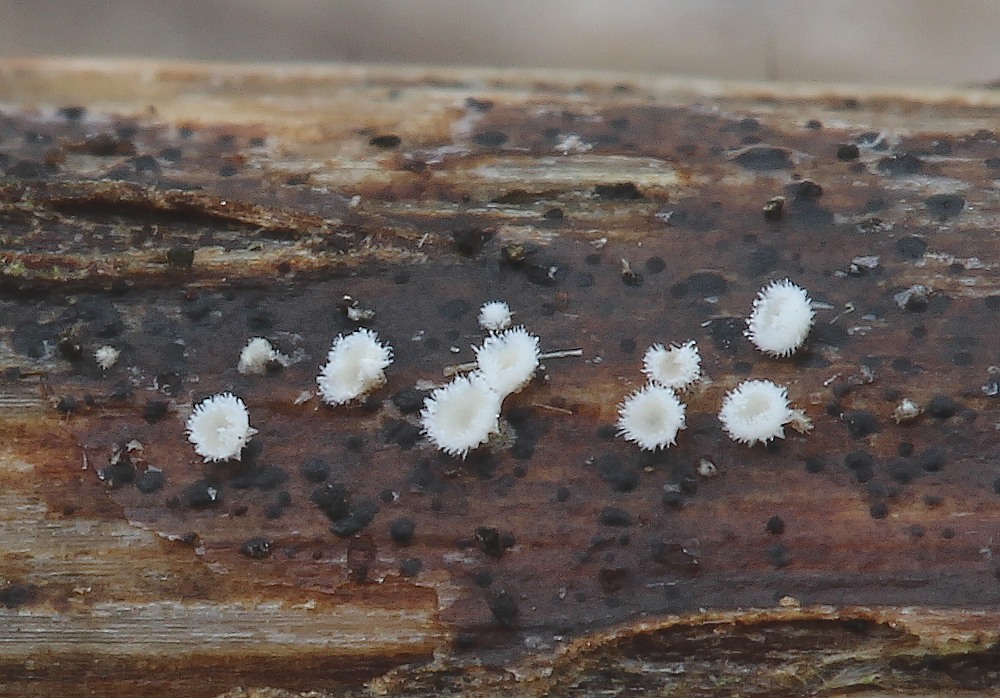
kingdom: Fungi
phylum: Basidiomycota
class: Agaricomycetes
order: Agaricales
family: Niaceae
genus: Lachnella
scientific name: Lachnella villosa
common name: hvid frynserede
